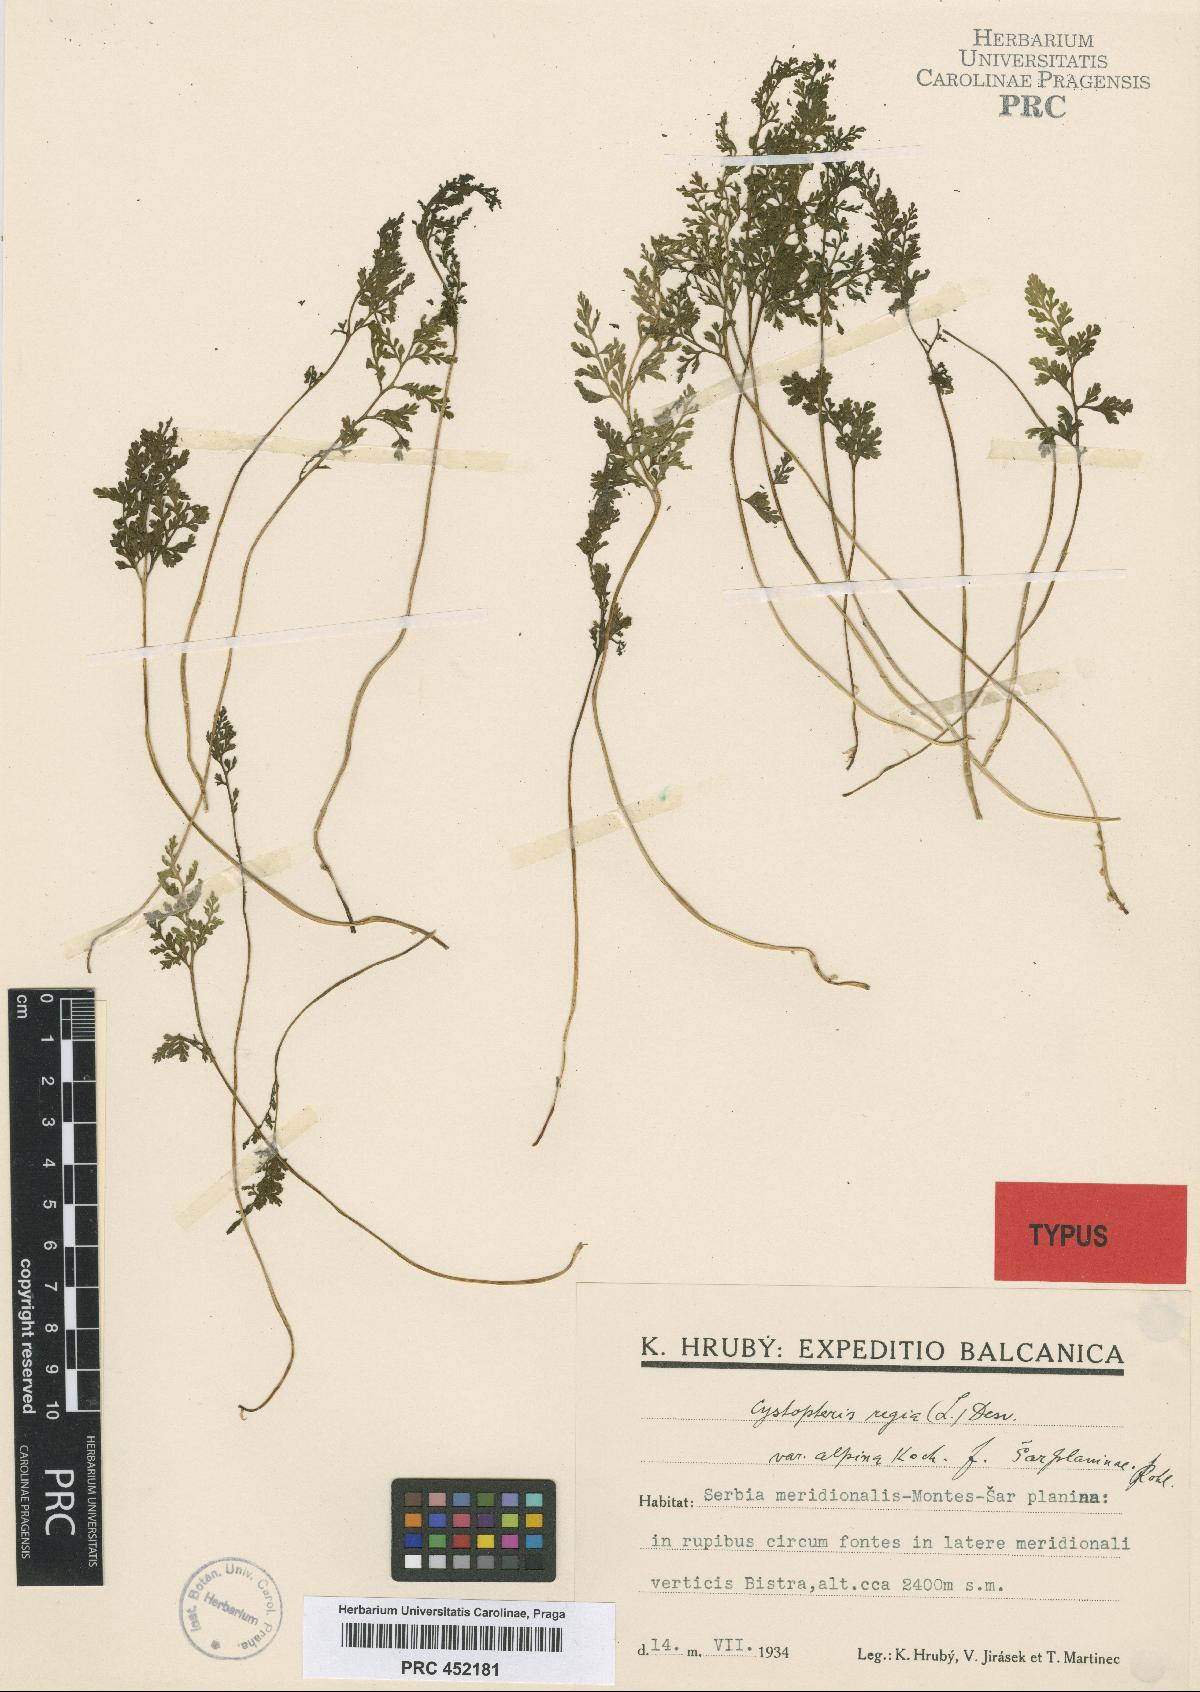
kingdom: Plantae
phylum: Tracheophyta
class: Polypodiopsida
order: Polypodiales
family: Cystopteridaceae
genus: Cystopteris
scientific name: Cystopteris fragilis
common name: Brittle bladder fern
